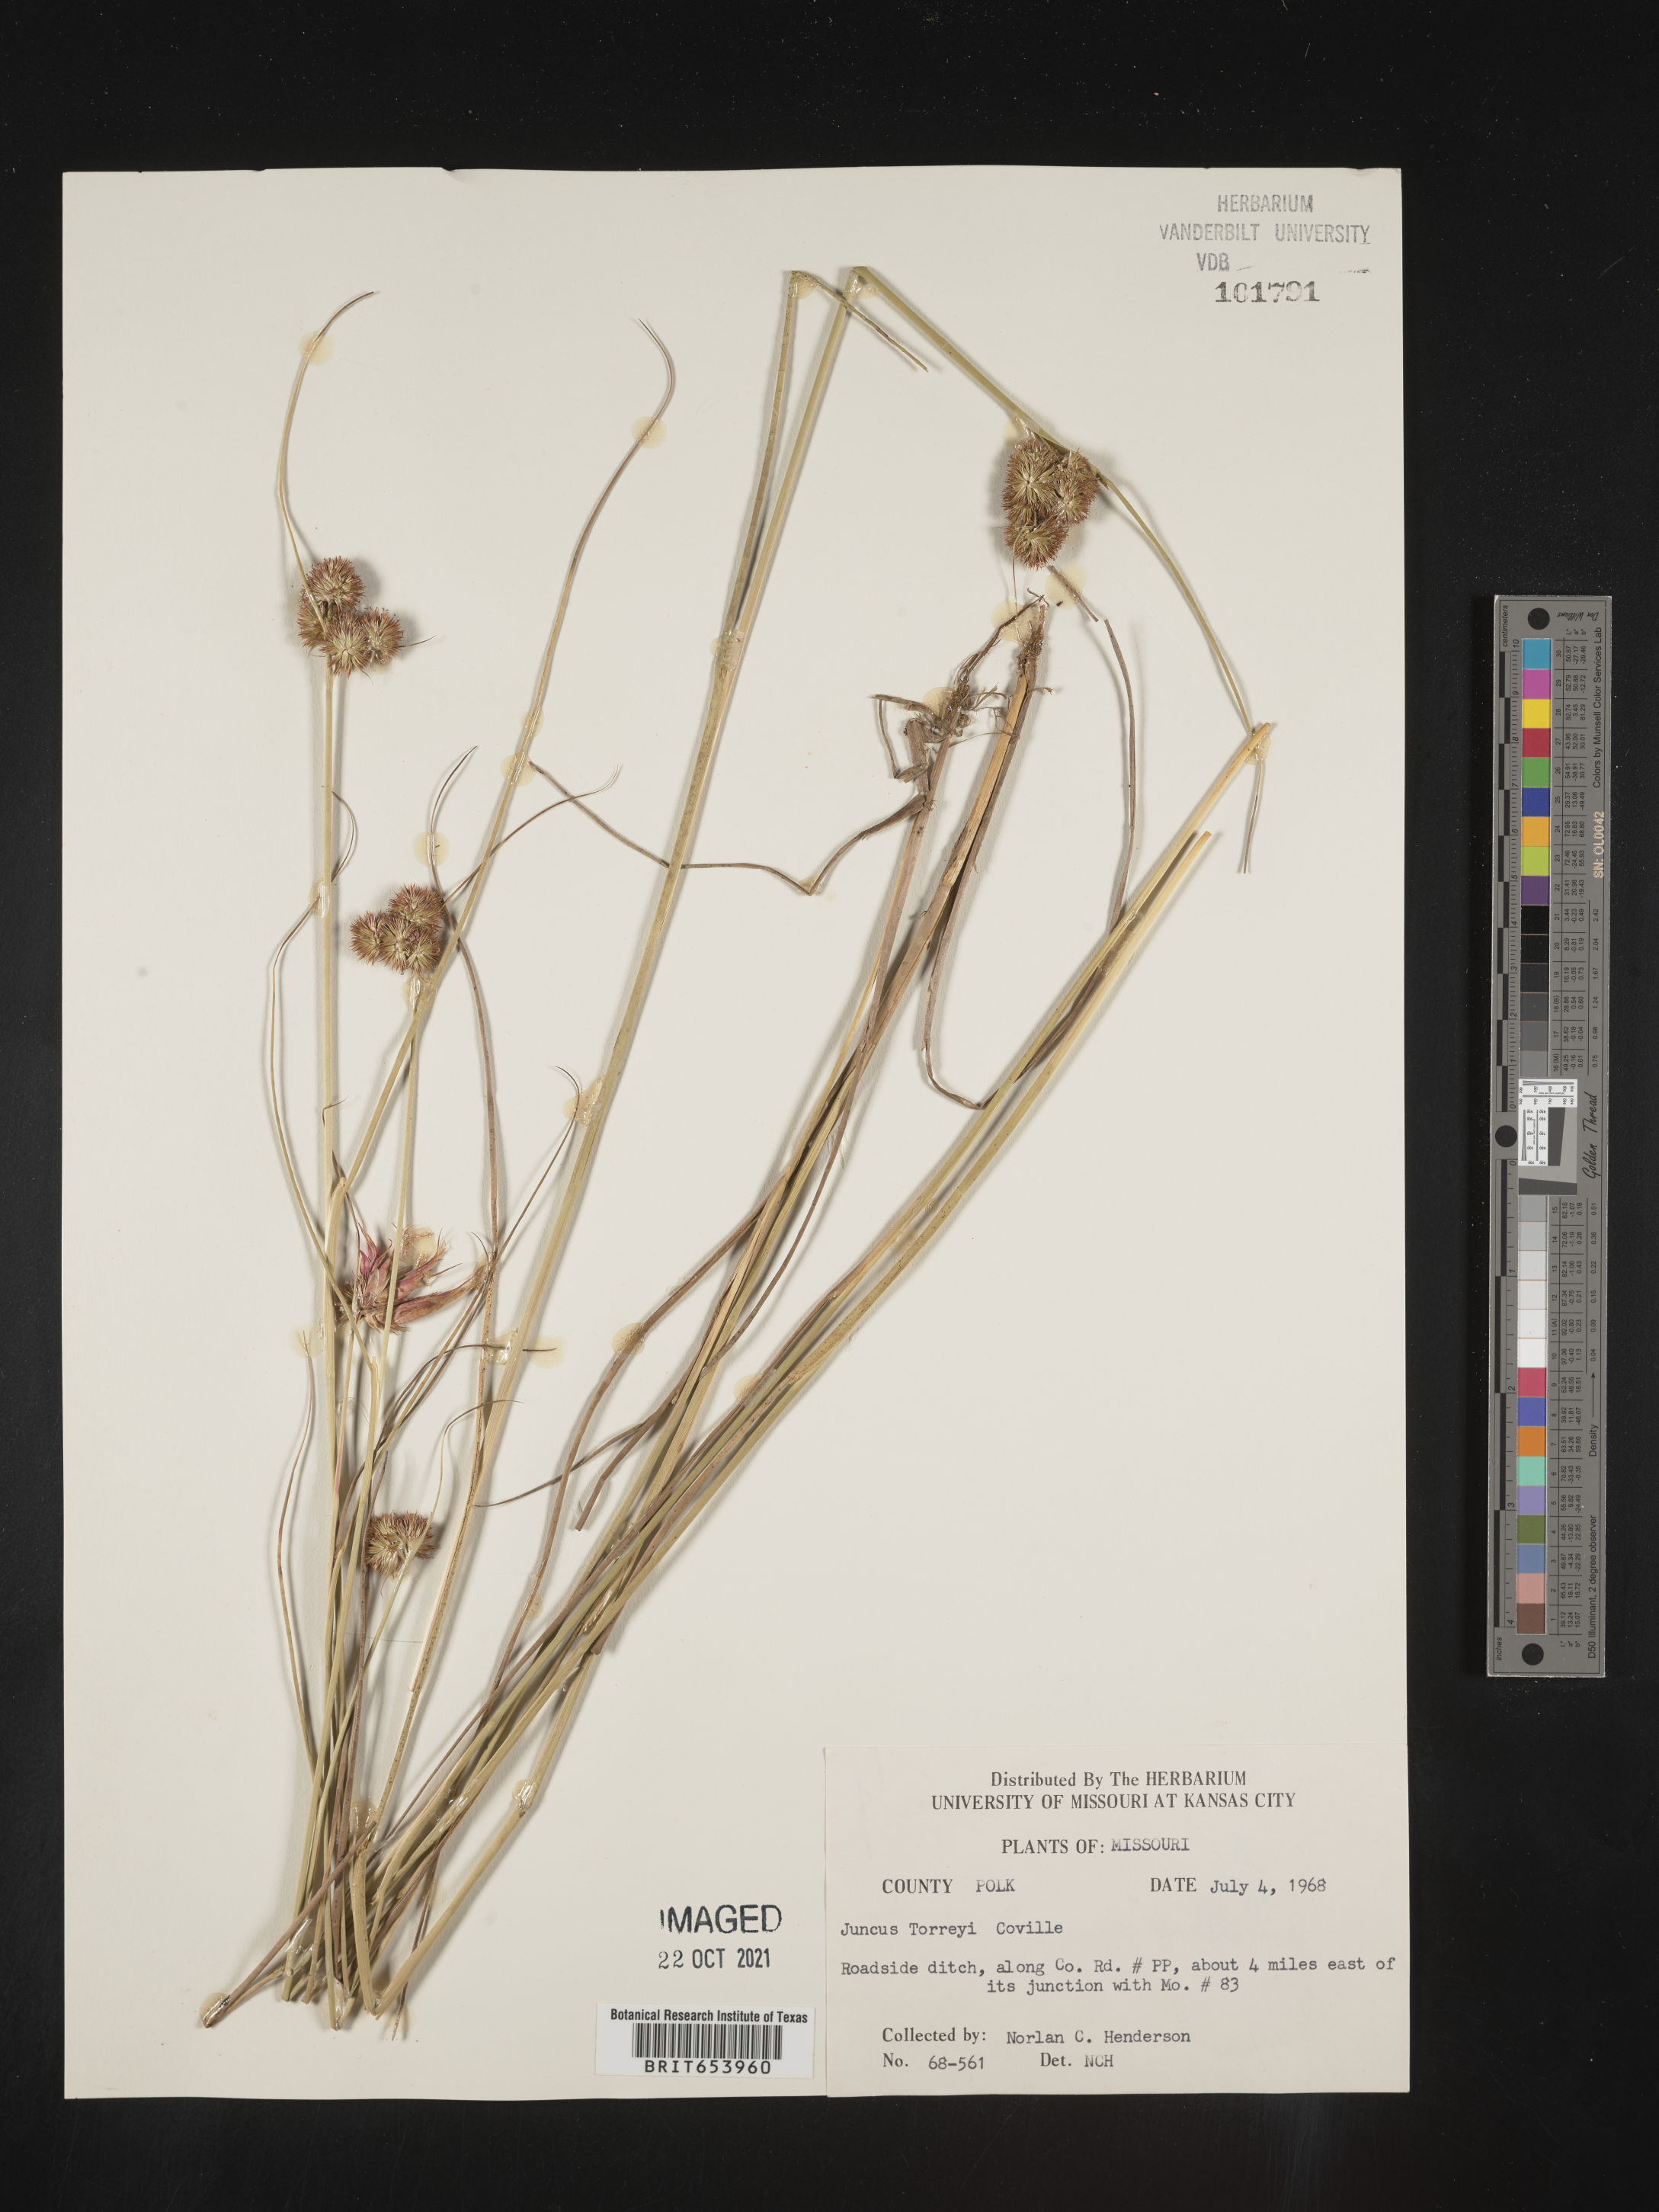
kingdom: Plantae
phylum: Tracheophyta
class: Liliopsida
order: Poales
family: Juncaceae
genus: Juncus
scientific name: Juncus torreyi
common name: Torrey's rush
